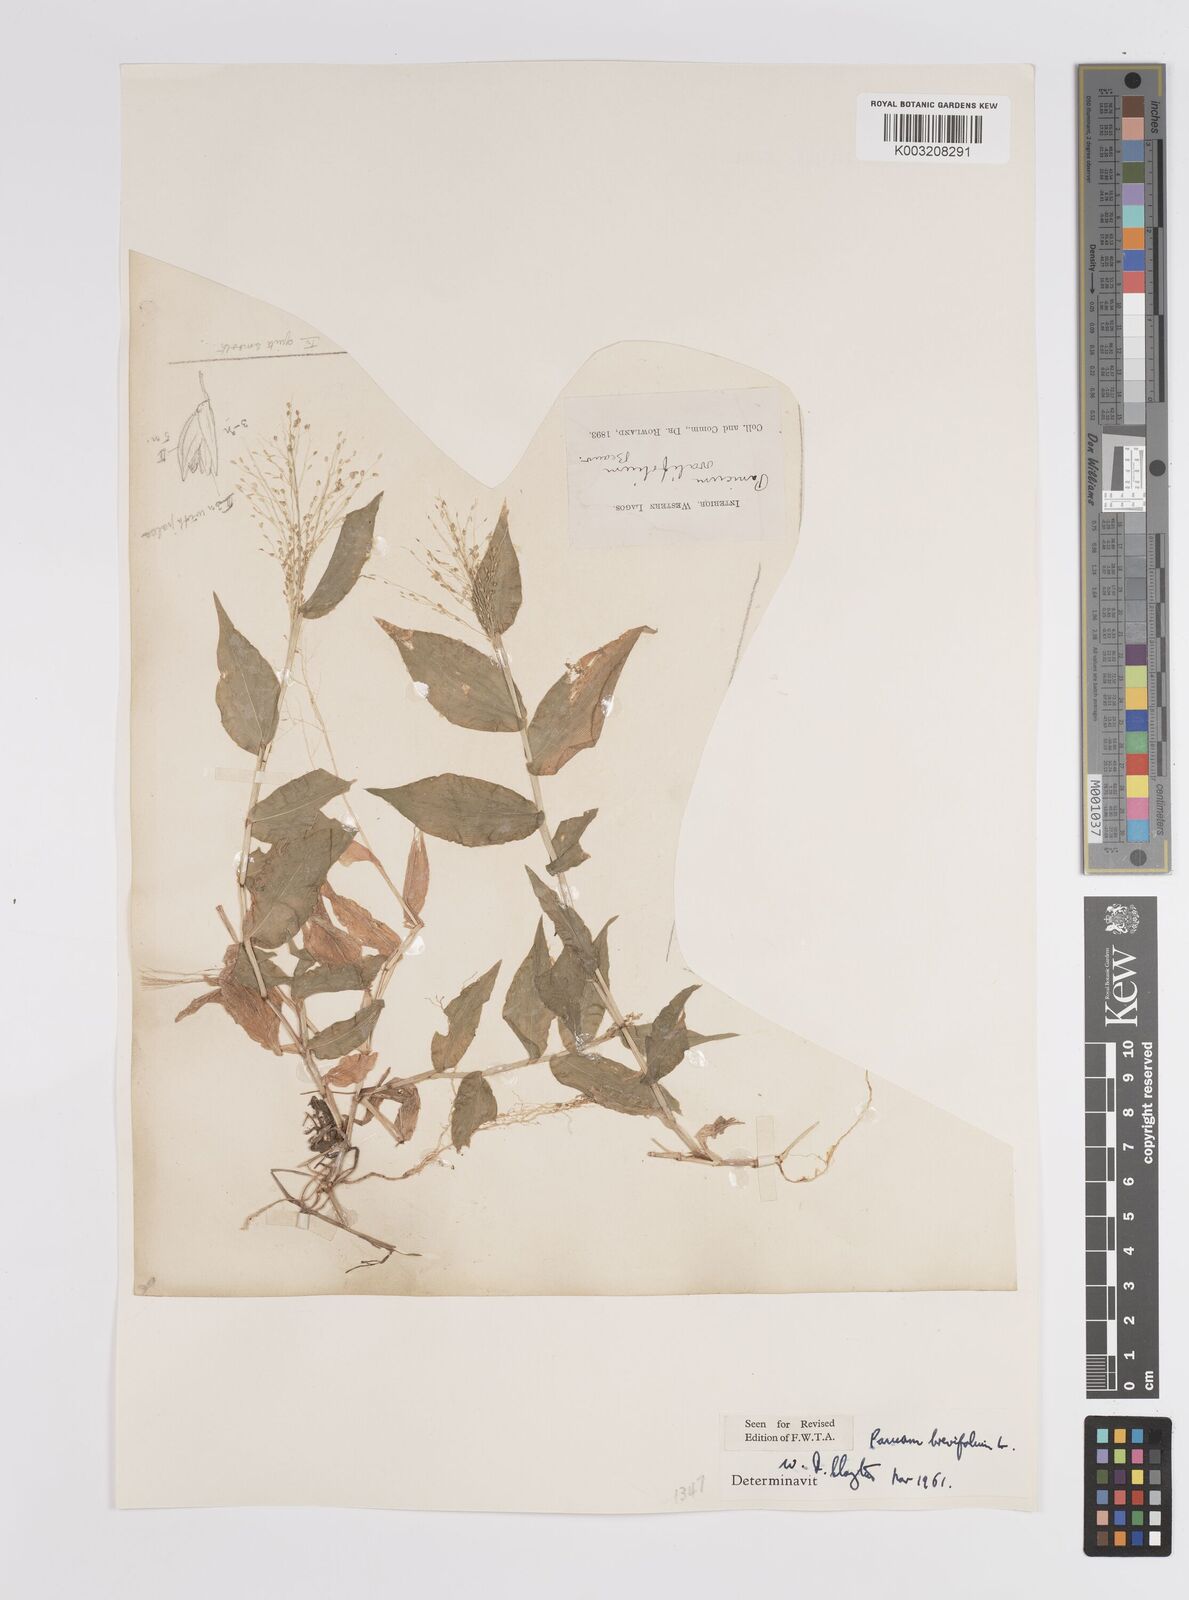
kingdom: Plantae
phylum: Tracheophyta
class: Liliopsida
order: Poales
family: Poaceae
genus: Panicum
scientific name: Panicum brevifolium
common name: Shortleaf panic grass
